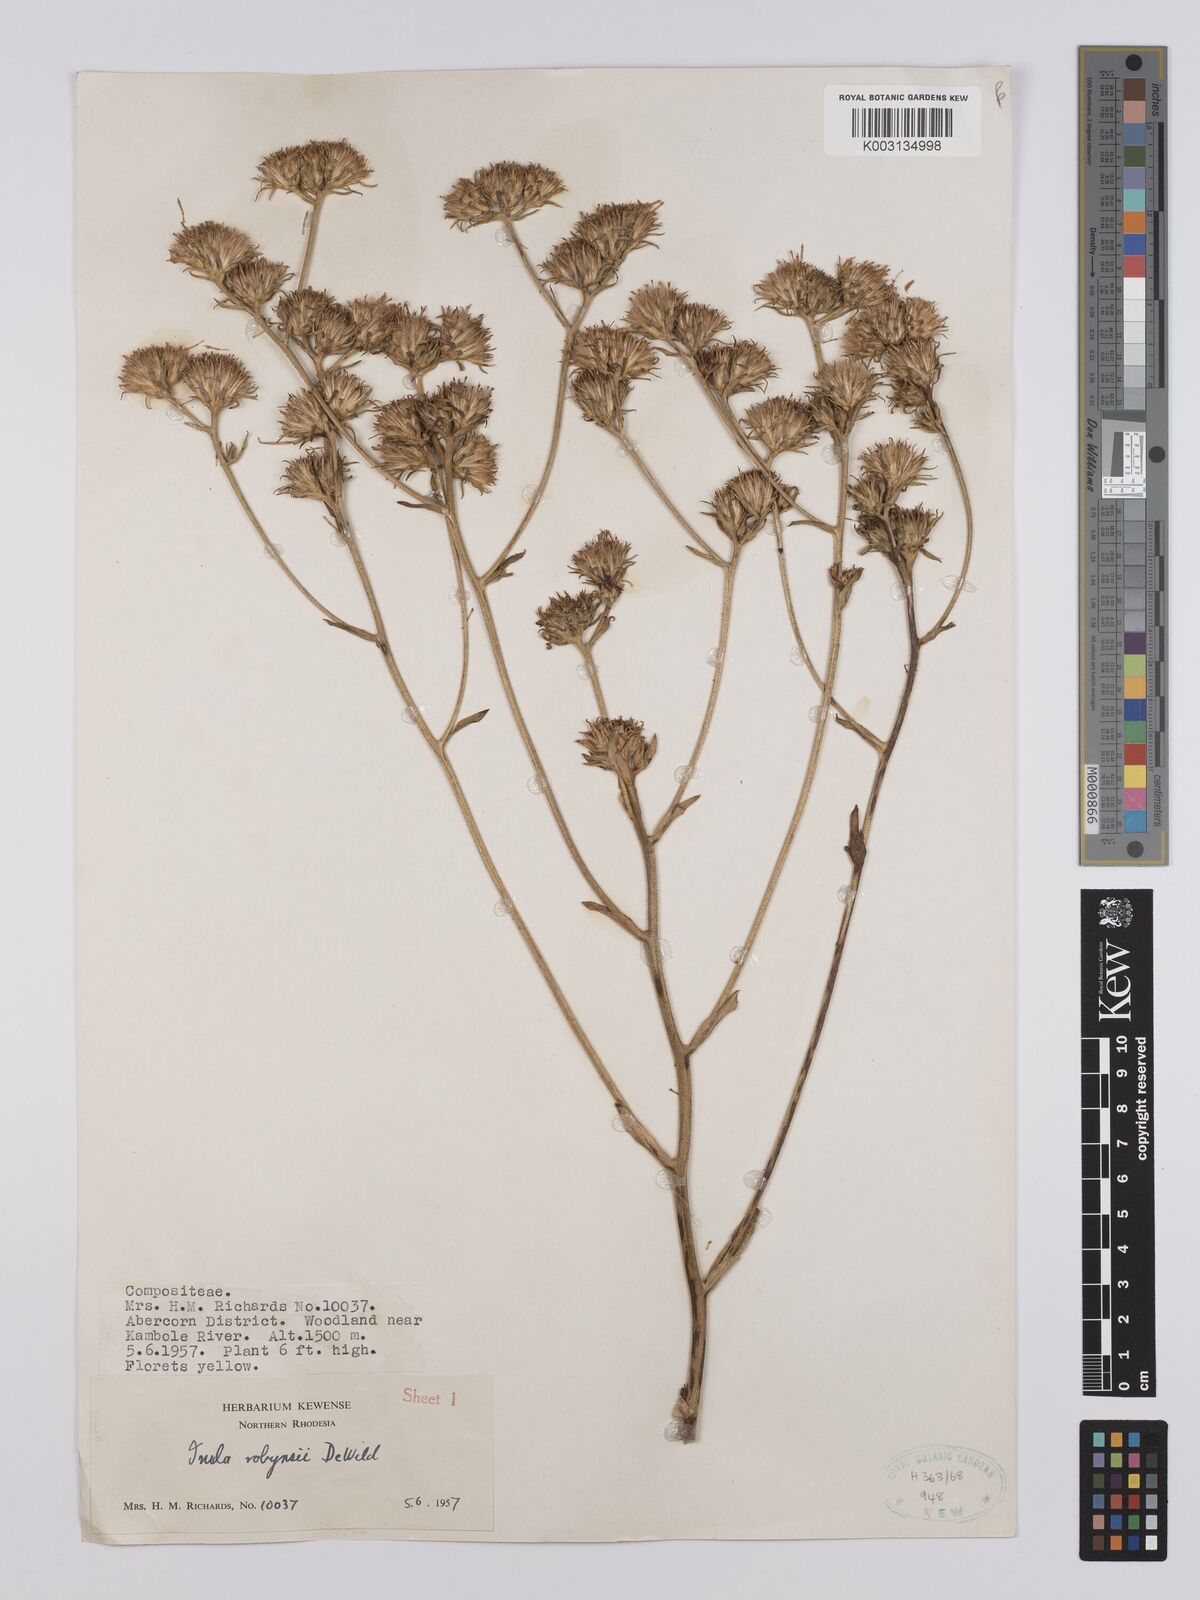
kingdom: Plantae
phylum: Tracheophyta
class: Magnoliopsida
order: Asterales
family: Asteraceae
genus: Inula
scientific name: Inula robynsii
